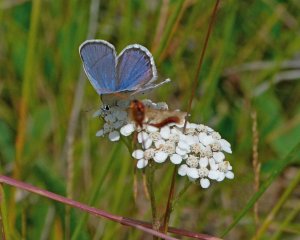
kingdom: Animalia
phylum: Arthropoda
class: Insecta
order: Lepidoptera
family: Lycaenidae
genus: Lycaeides
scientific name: Lycaeides melissa
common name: Melissa Blue
